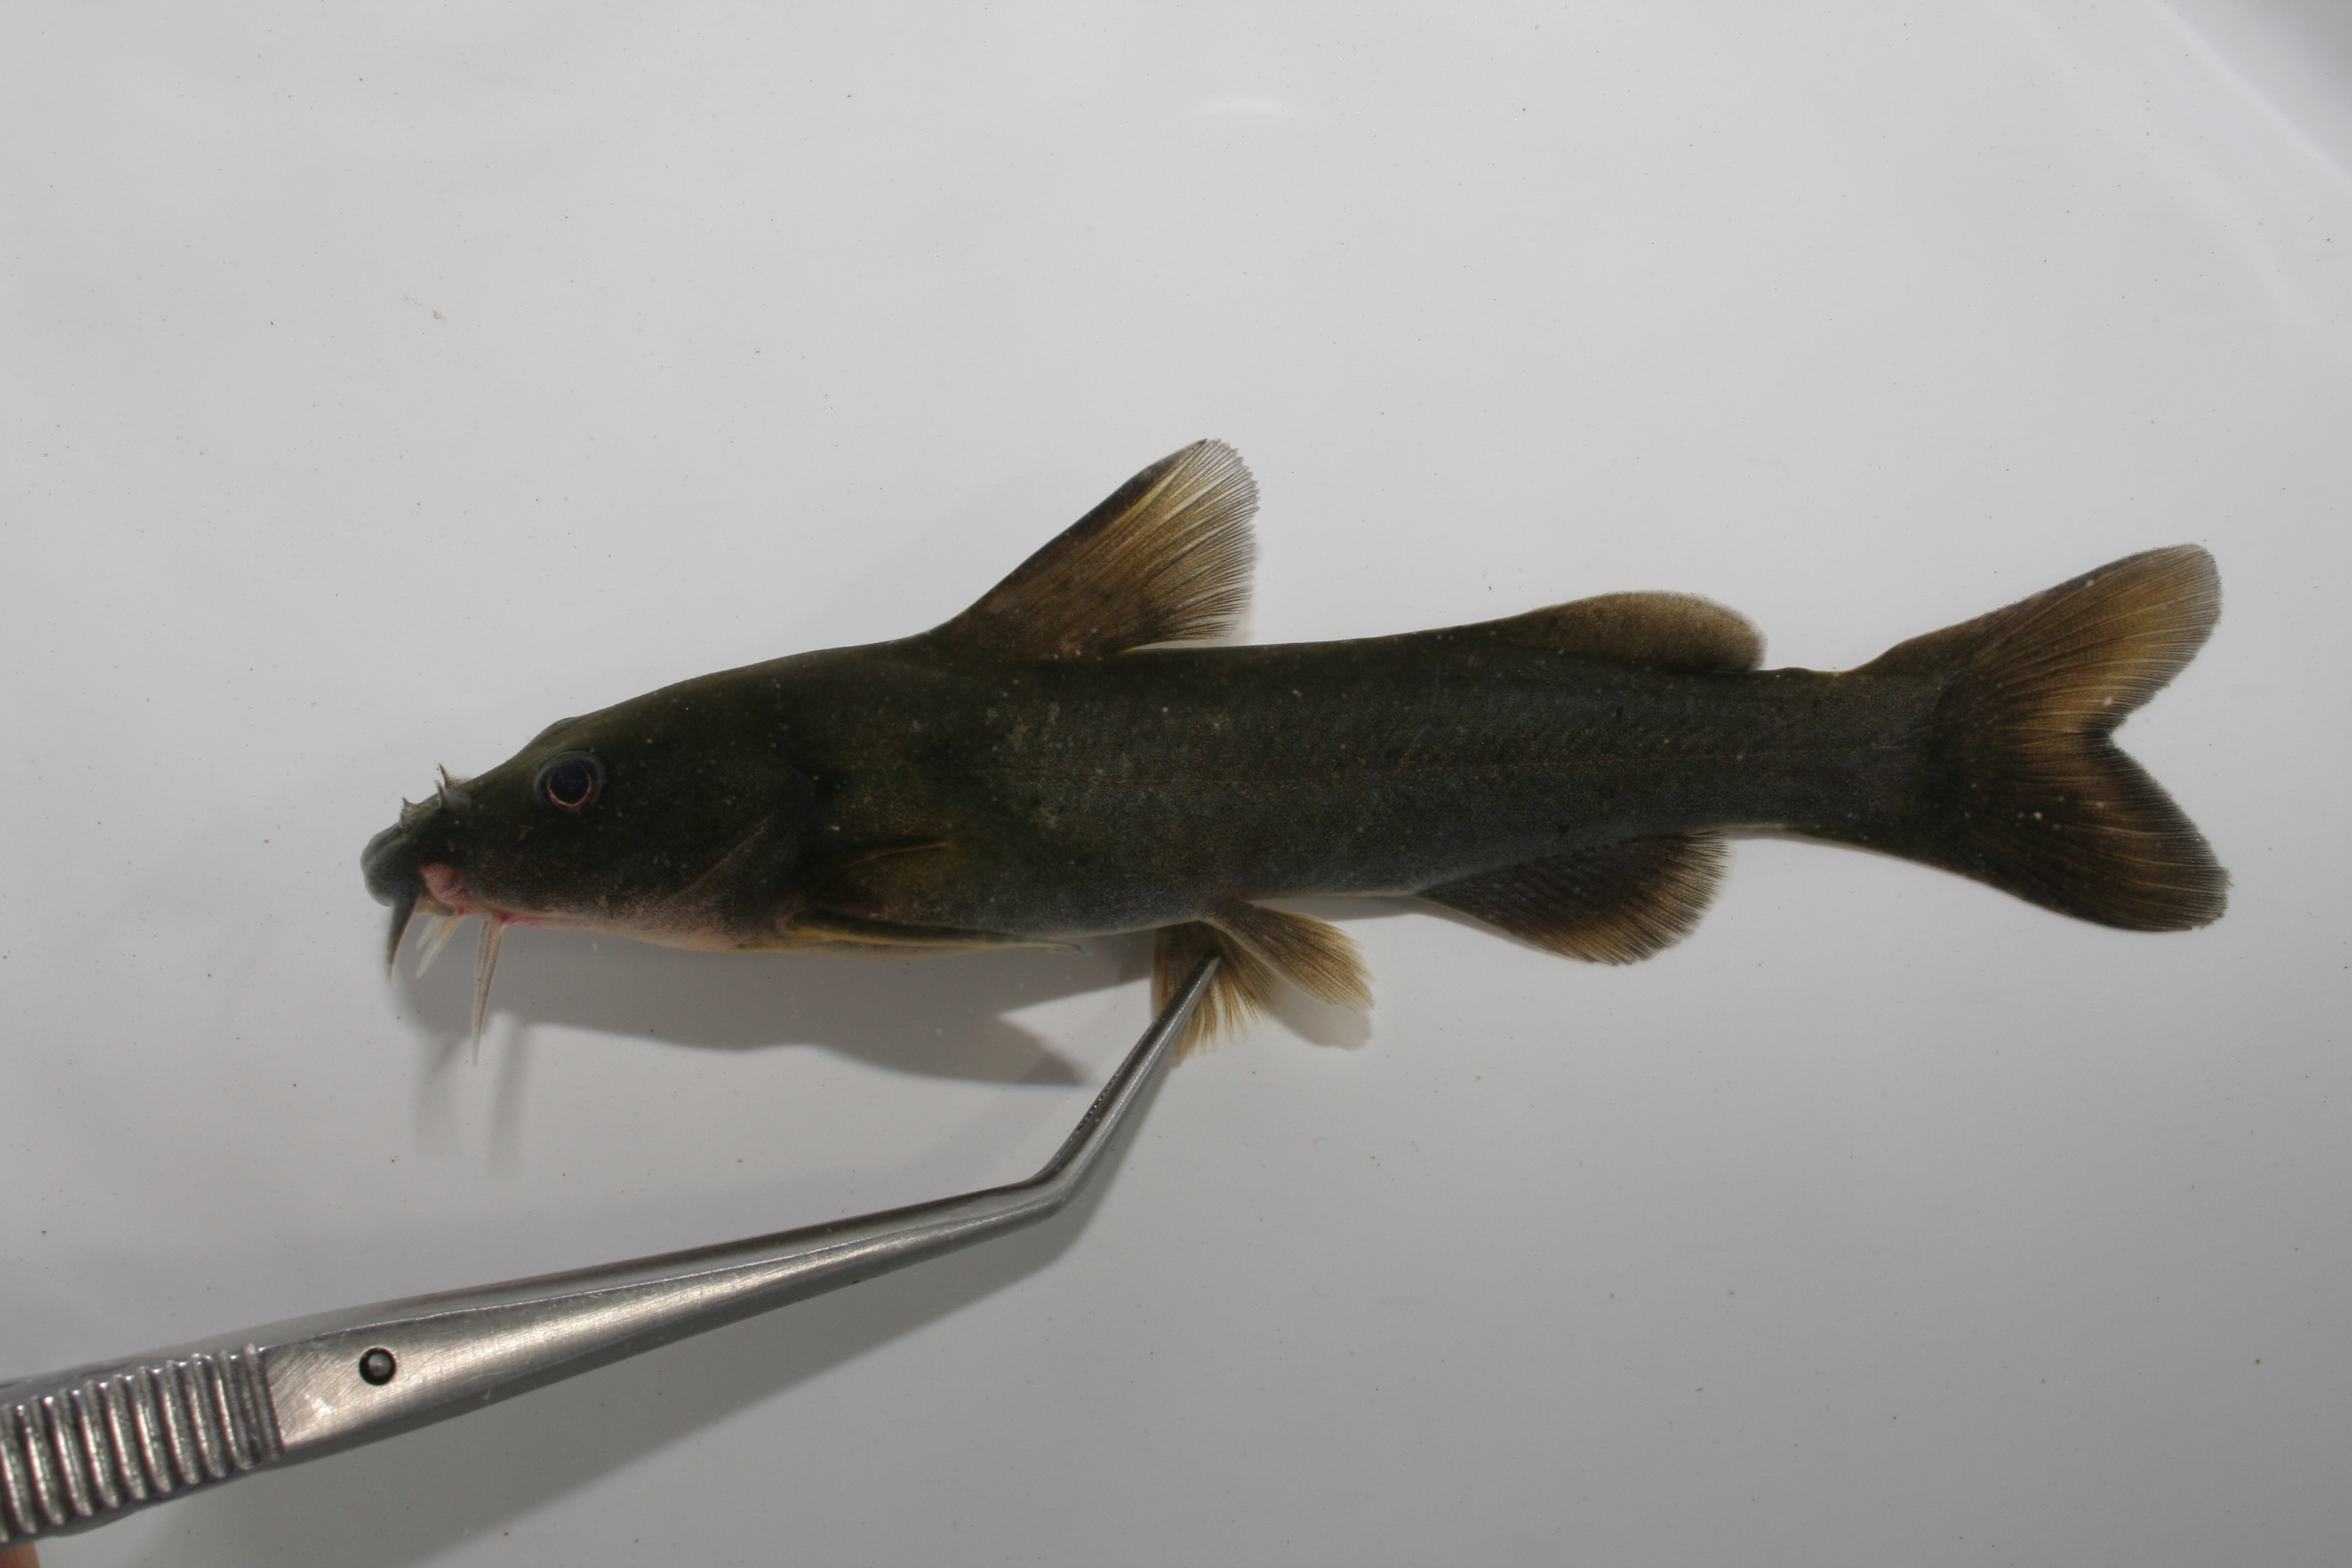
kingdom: Animalia
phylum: Chordata
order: Siluriformes
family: Austroglanididae
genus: Austroglanis
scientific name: Austroglanis sclateri
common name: Rock catfish
